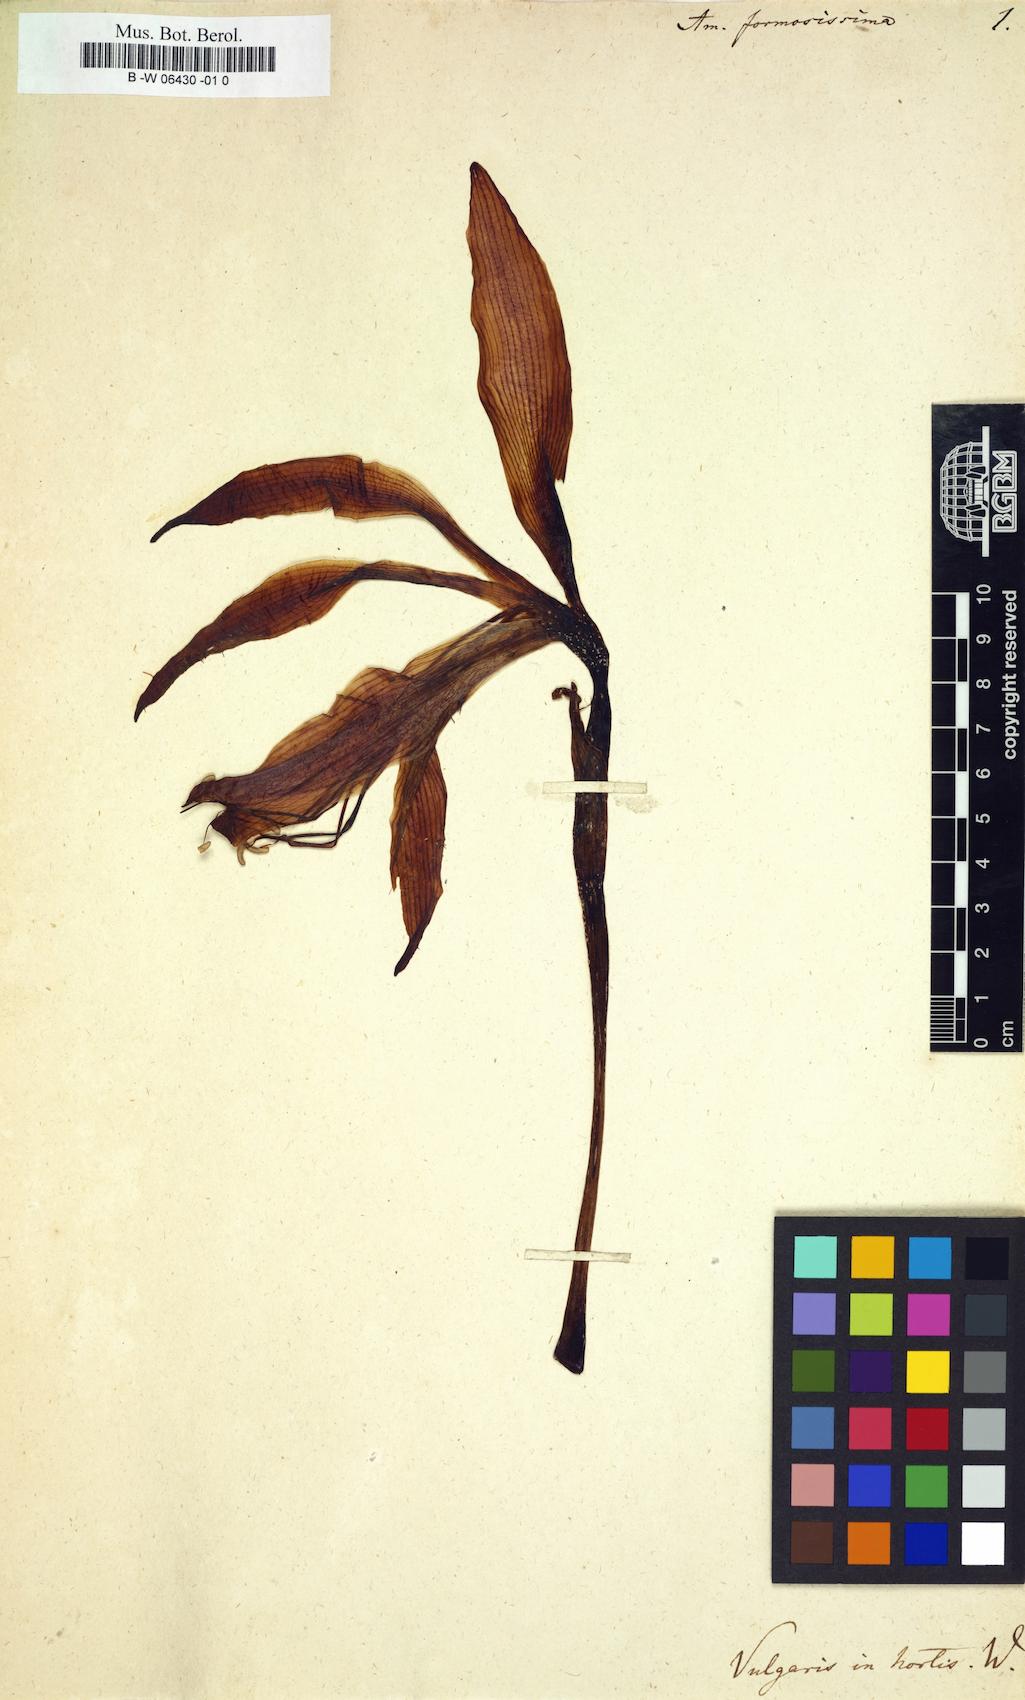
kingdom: Plantae
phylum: Tracheophyta
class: Liliopsida
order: Asparagales
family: Amaryllidaceae
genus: Sprekelia
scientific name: Sprekelia formosissima
